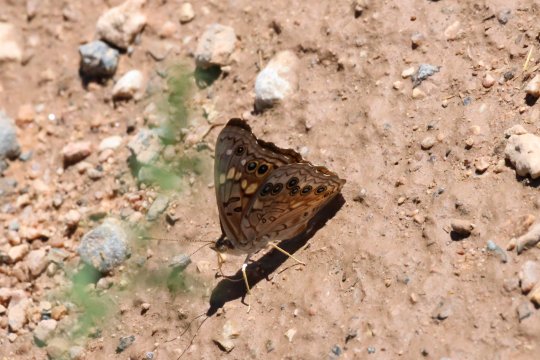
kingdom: Animalia
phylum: Arthropoda
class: Insecta
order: Lepidoptera
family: Nymphalidae
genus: Asterocampa
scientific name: Asterocampa celtis
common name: Hackberry Emperor
